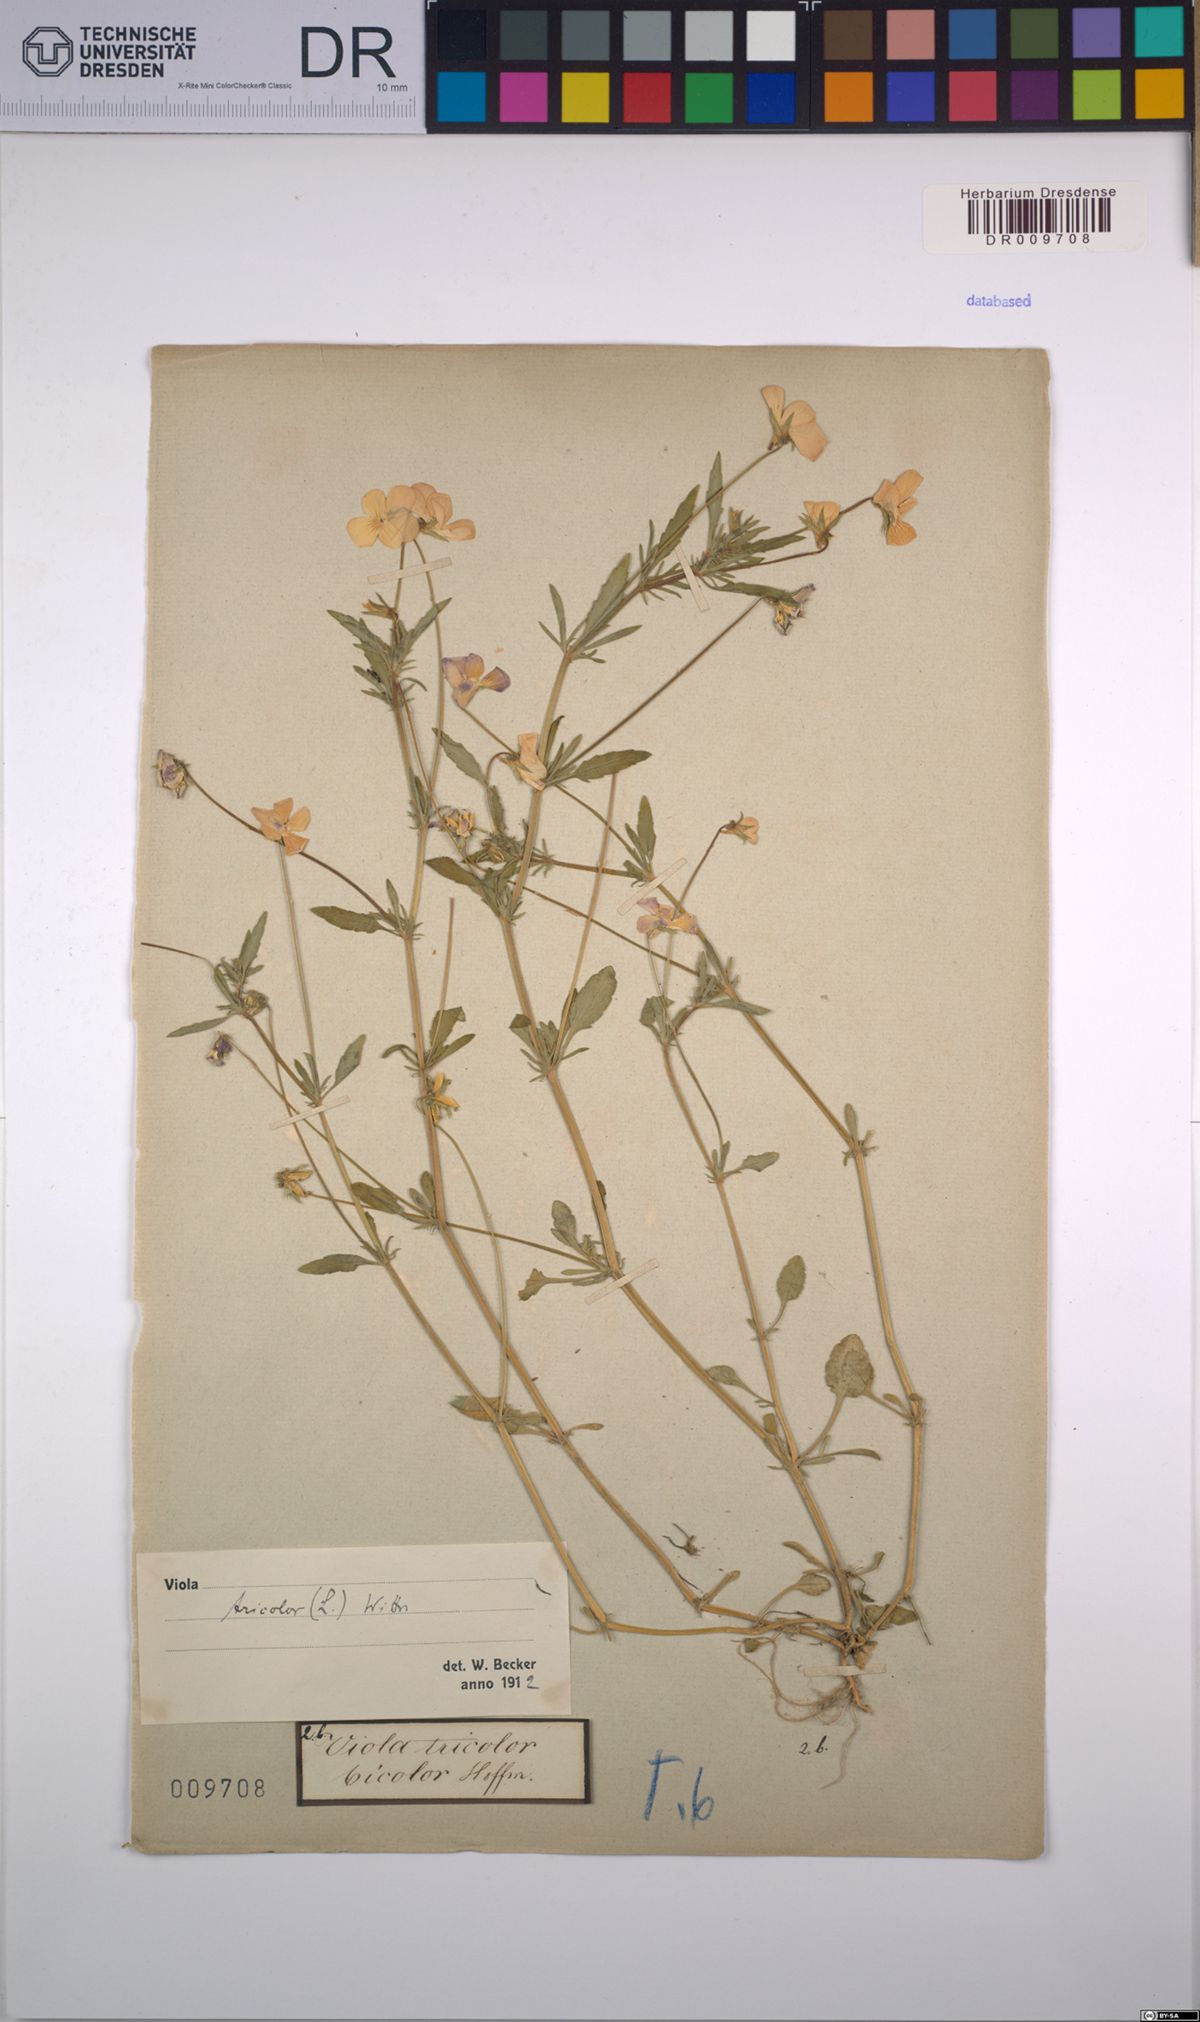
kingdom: Plantae
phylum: Tracheophyta
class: Magnoliopsida
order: Malpighiales
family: Violaceae
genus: Viola
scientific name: Viola tricolor
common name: Pansy
